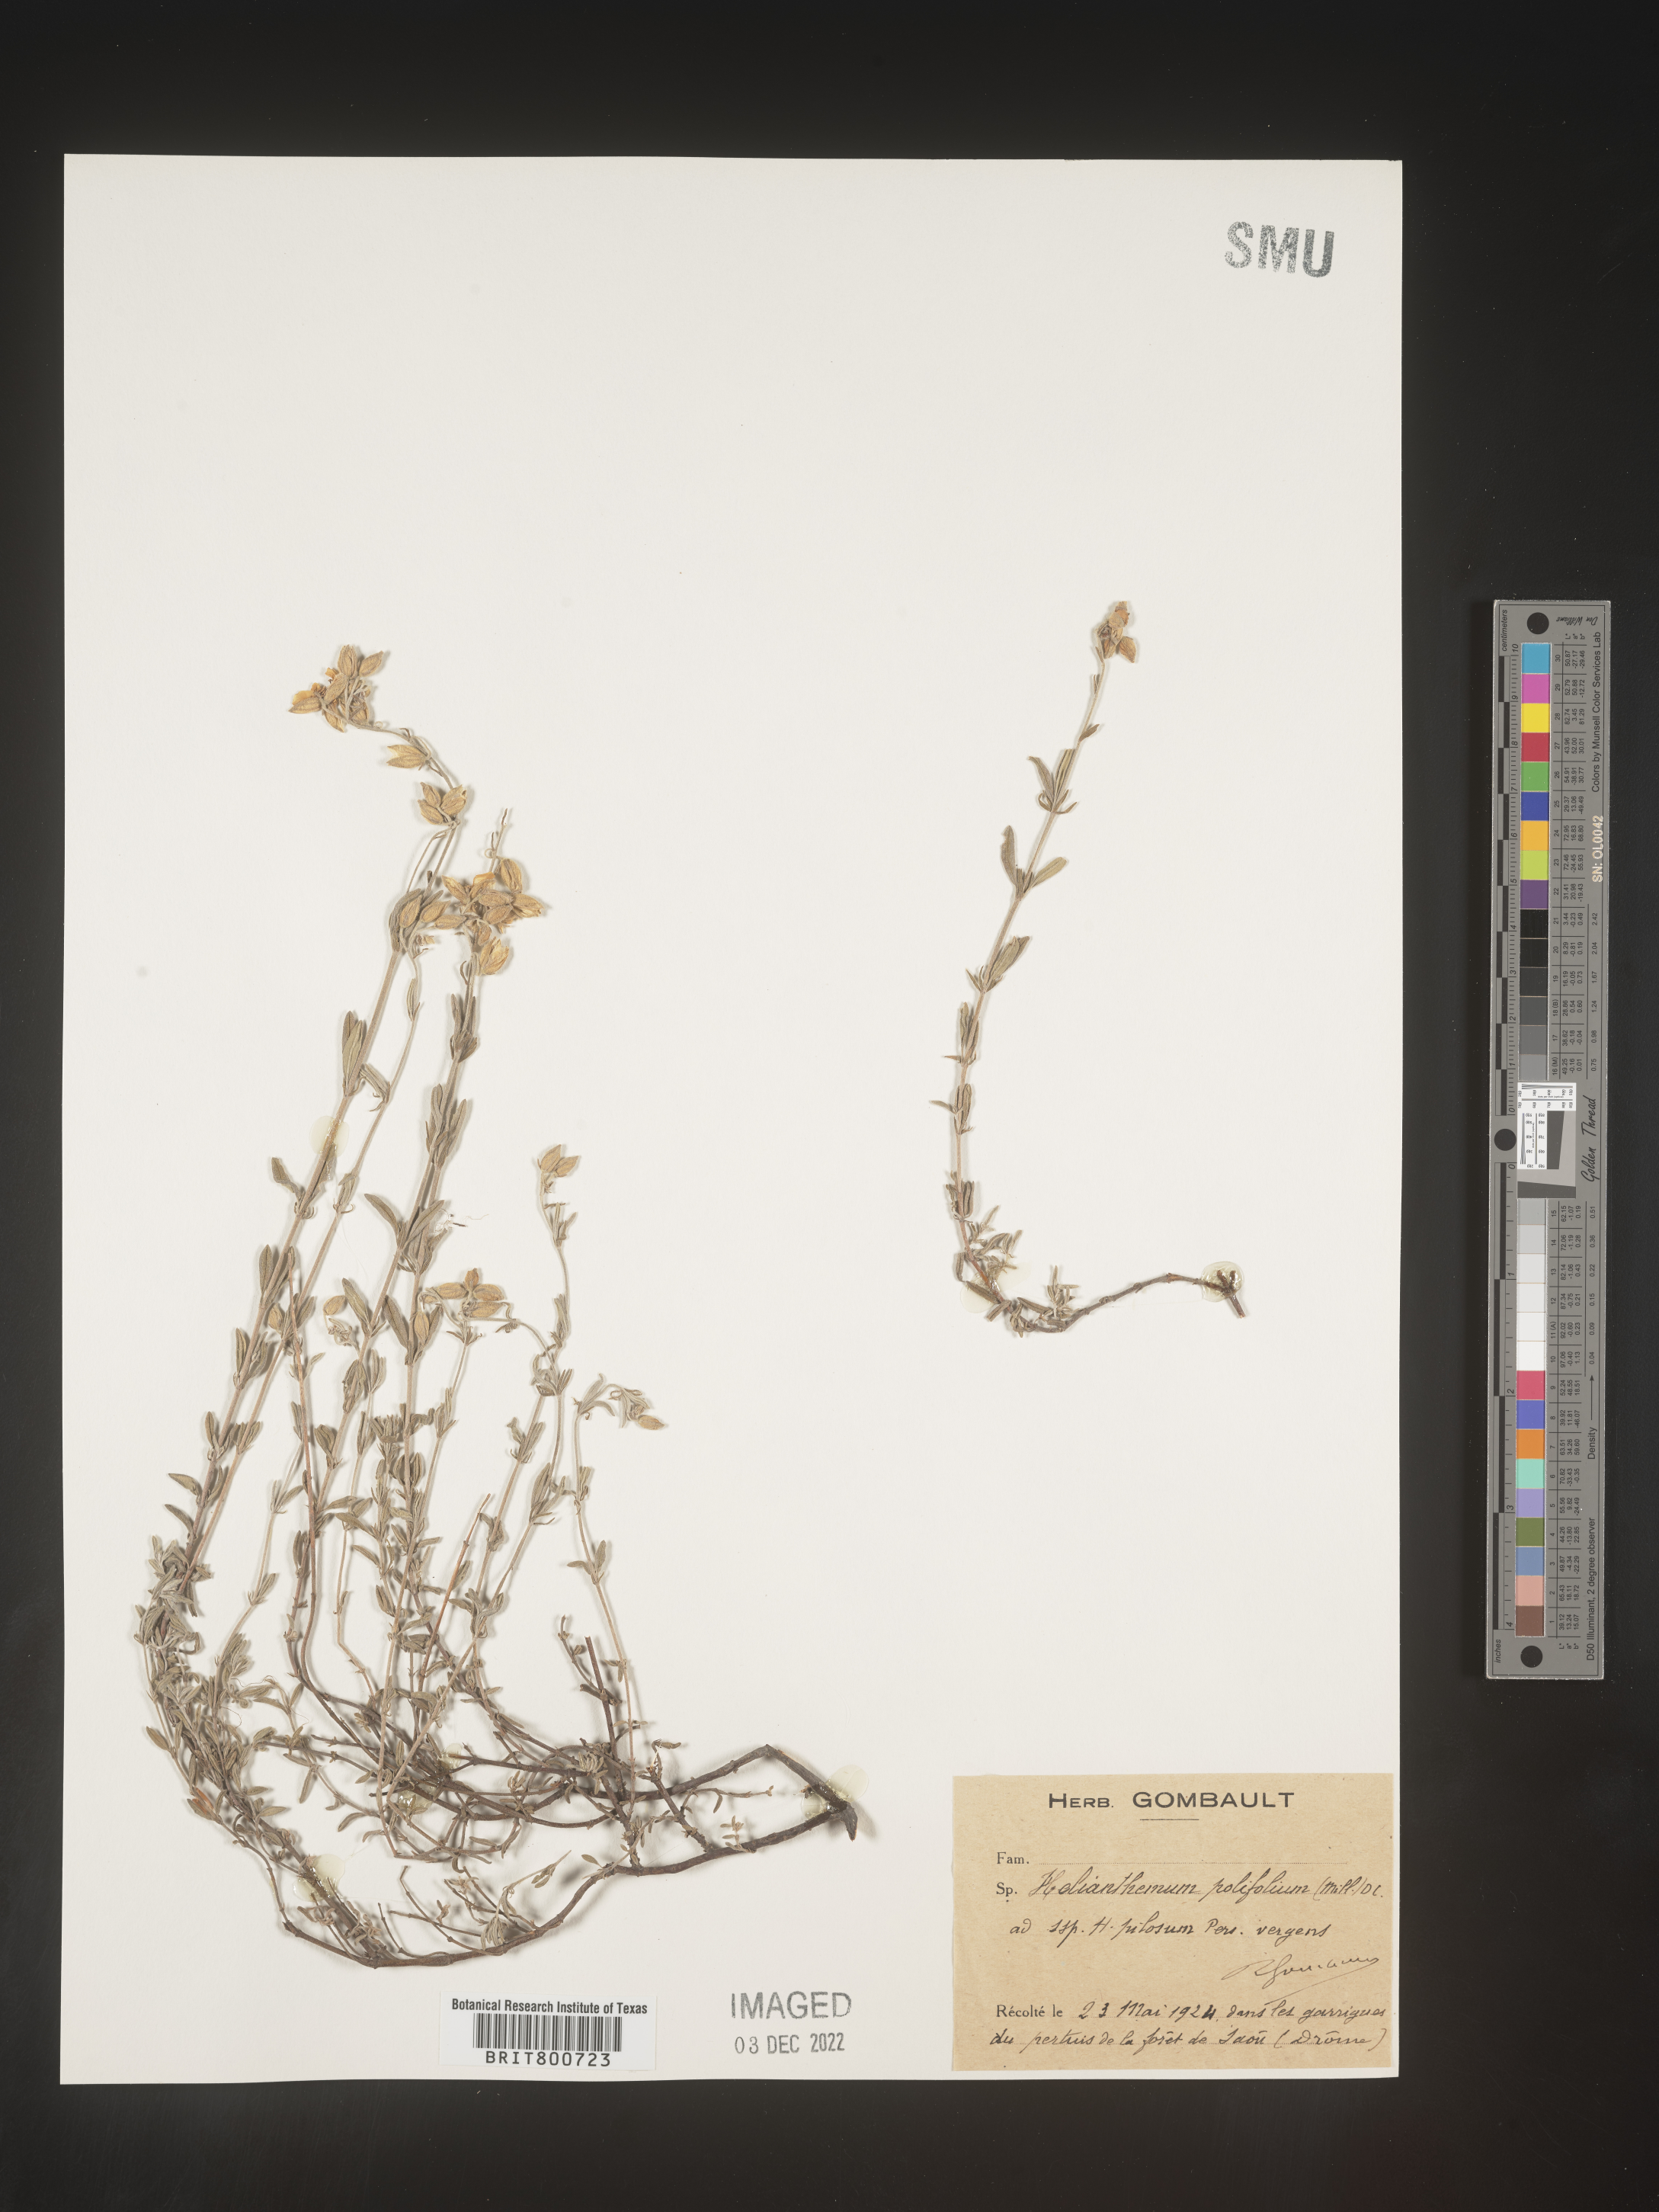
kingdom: Plantae
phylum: Tracheophyta
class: Magnoliopsida
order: Malvales
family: Cistaceae
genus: Helianthemum
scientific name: Helianthemum
